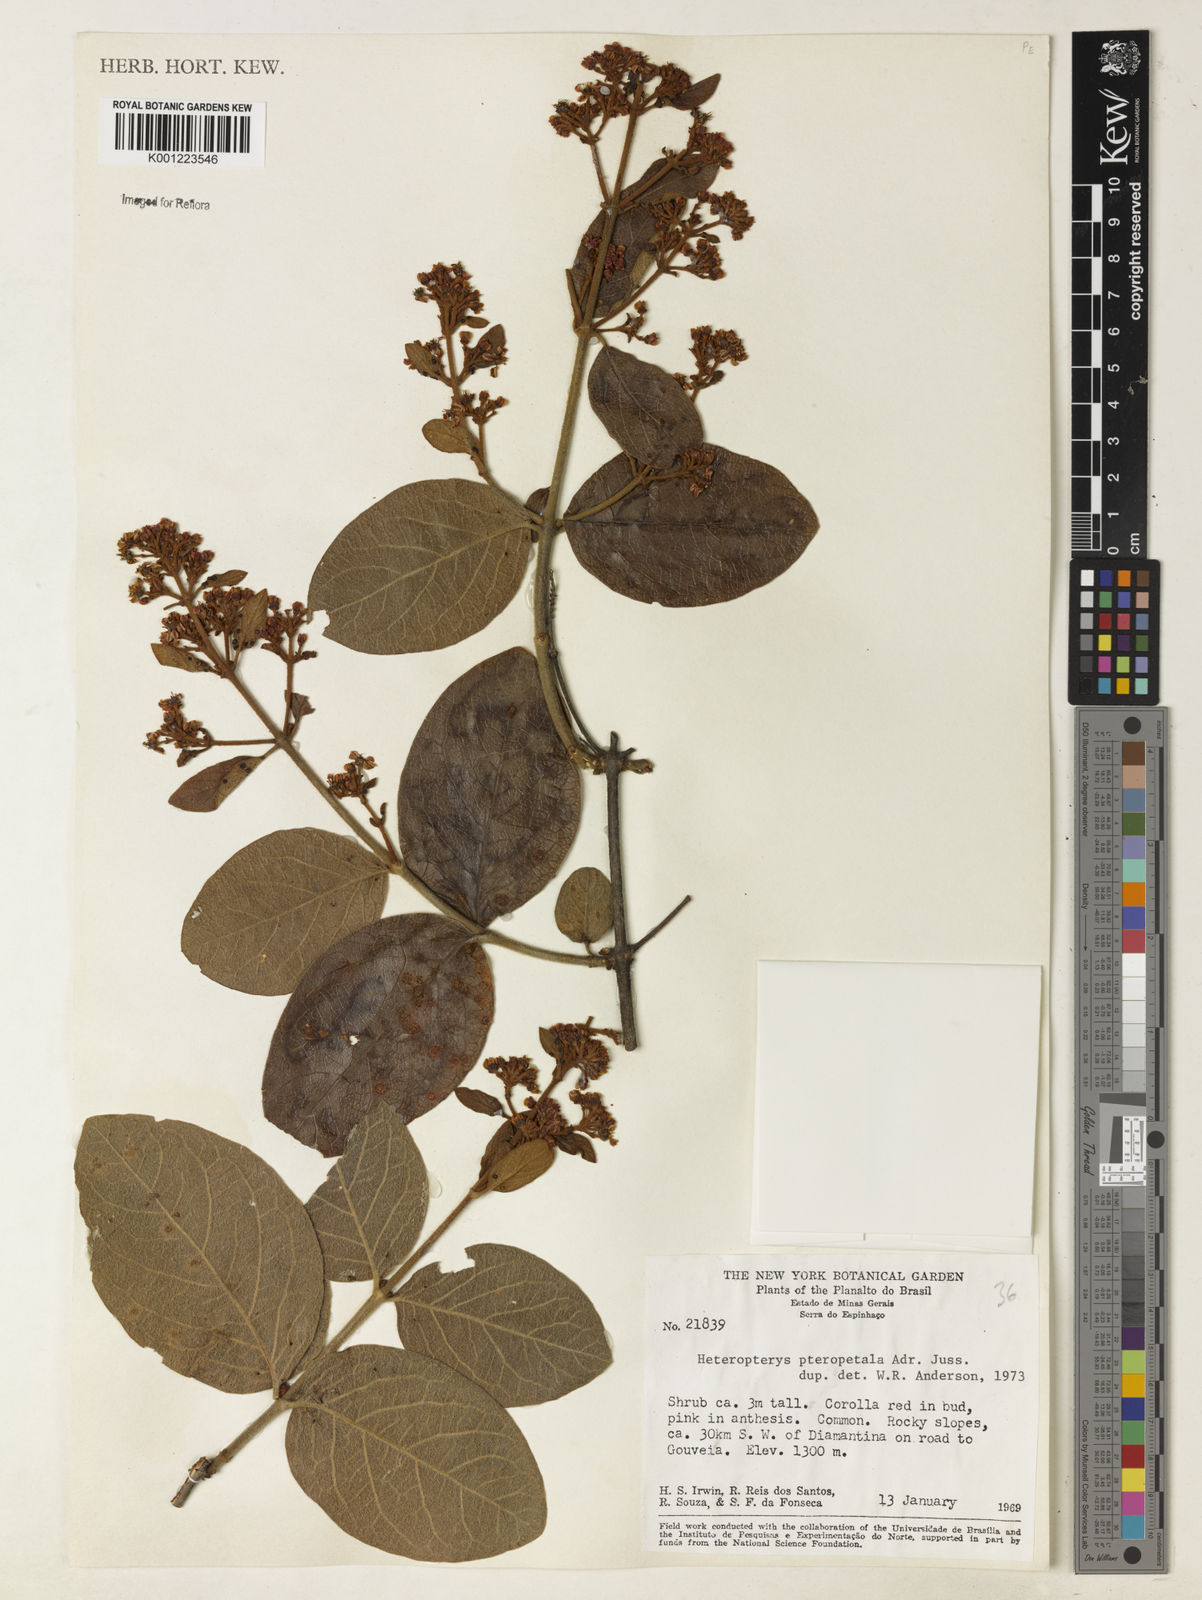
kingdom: Plantae
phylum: Tracheophyta
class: Magnoliopsida
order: Malpighiales
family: Malpighiaceae
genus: Heteropterys
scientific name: Heteropterys pteropetala
